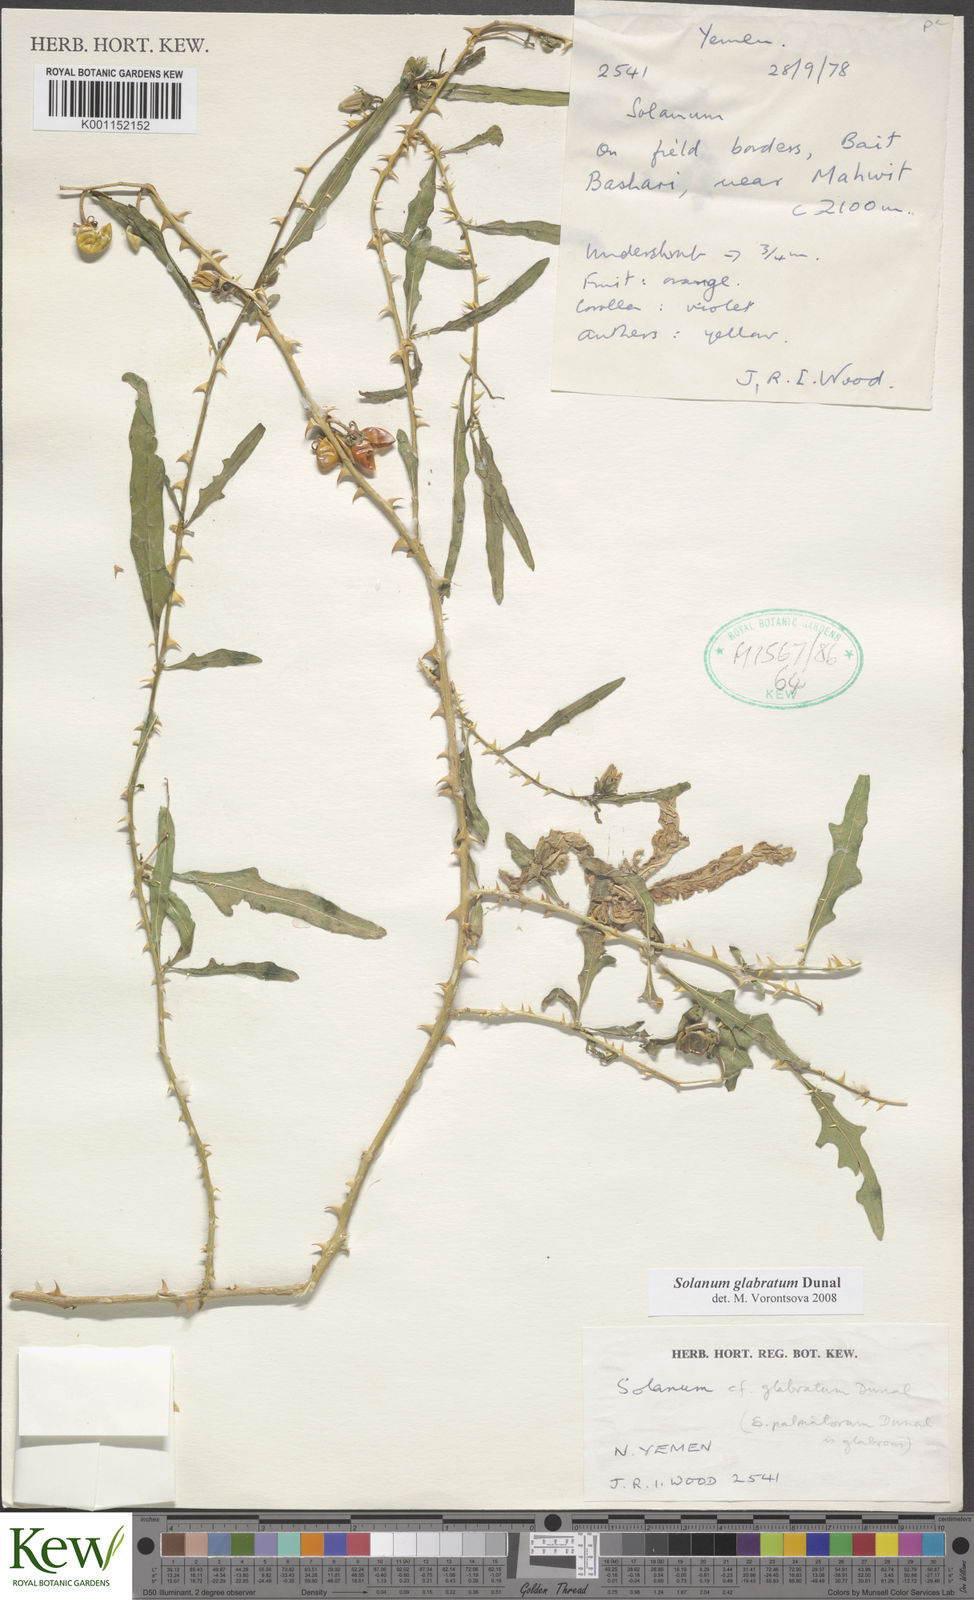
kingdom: Plantae
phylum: Tracheophyta
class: Magnoliopsida
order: Solanales
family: Solanaceae
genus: Solanum
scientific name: Solanum glabratum
